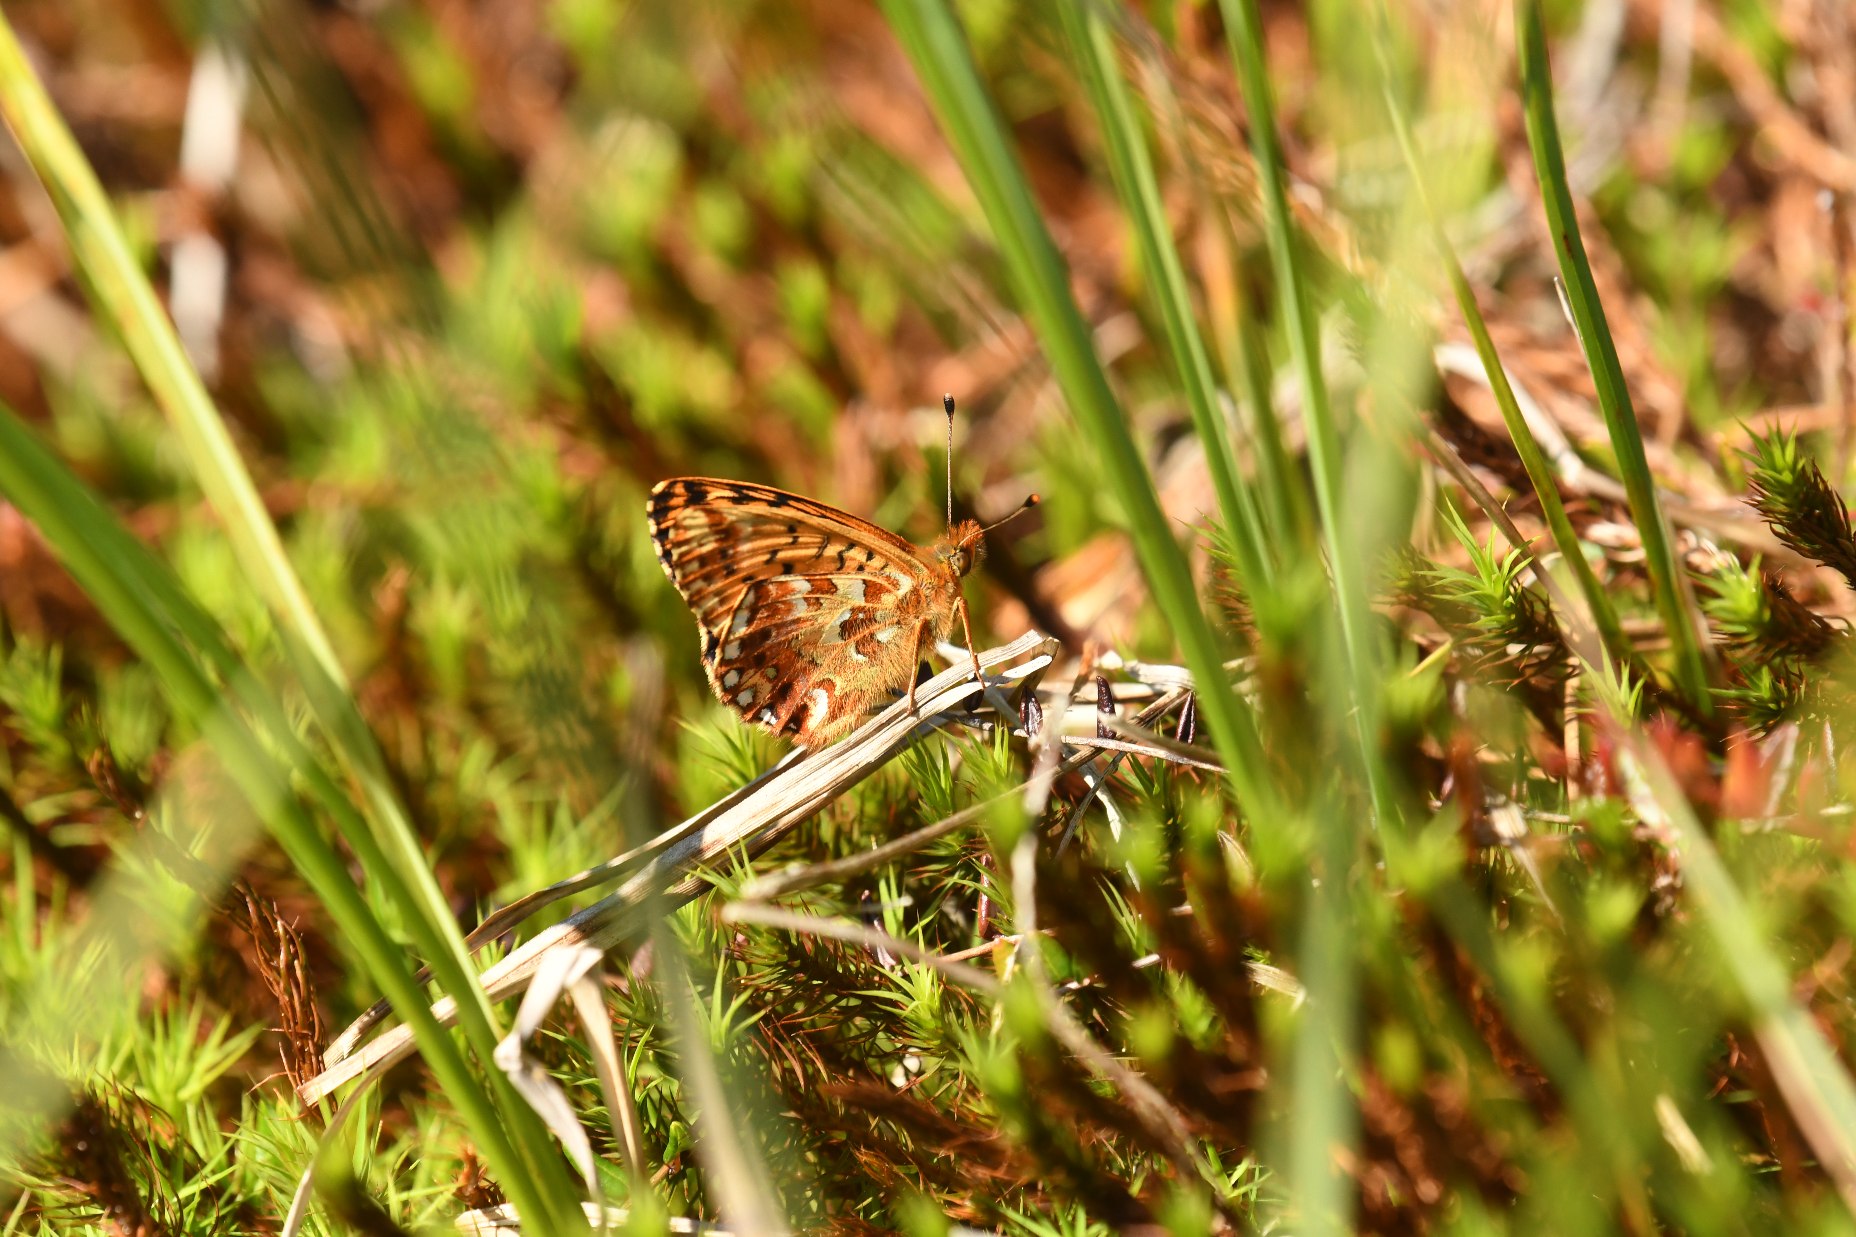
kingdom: Animalia
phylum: Arthropoda
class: Insecta
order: Lepidoptera
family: Nymphalidae
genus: Boloria
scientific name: Boloria aquilonaris
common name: Moseperlemorsommerfugl
